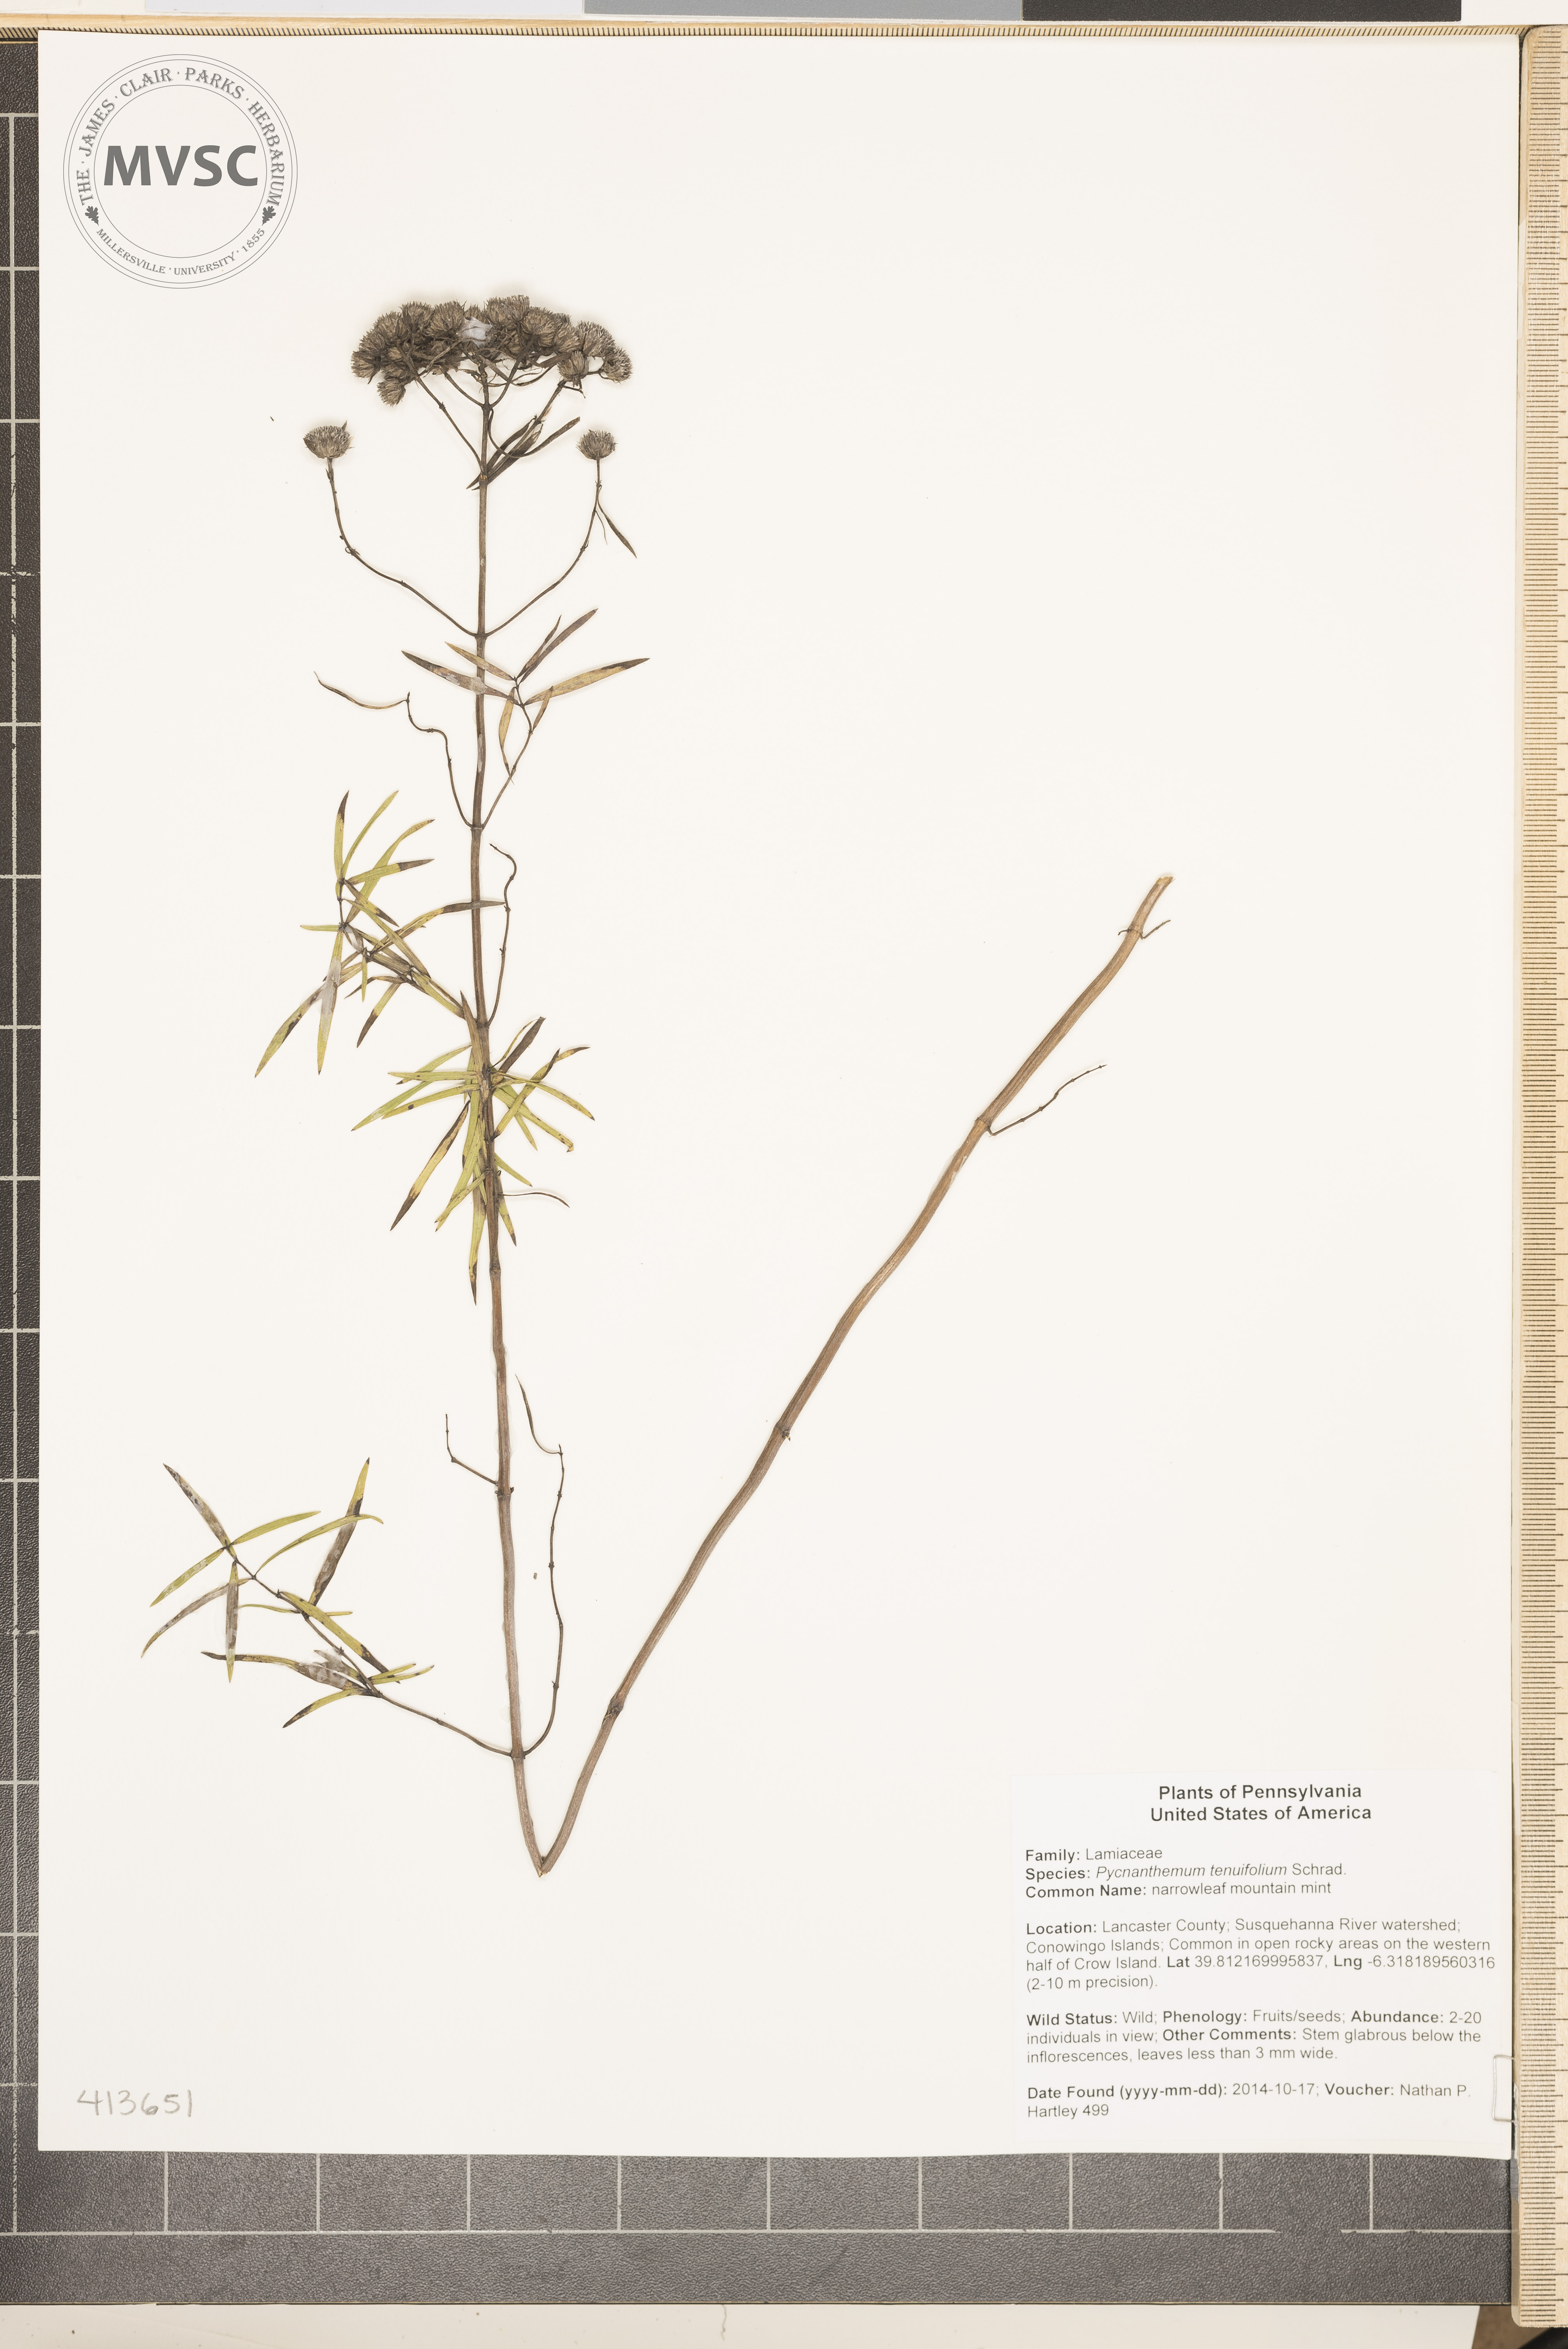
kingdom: Plantae
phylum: Tracheophyta
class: Magnoliopsida
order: Lamiales
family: Lamiaceae
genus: Pycnanthemum
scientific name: Pycnanthemum tenuifolium
